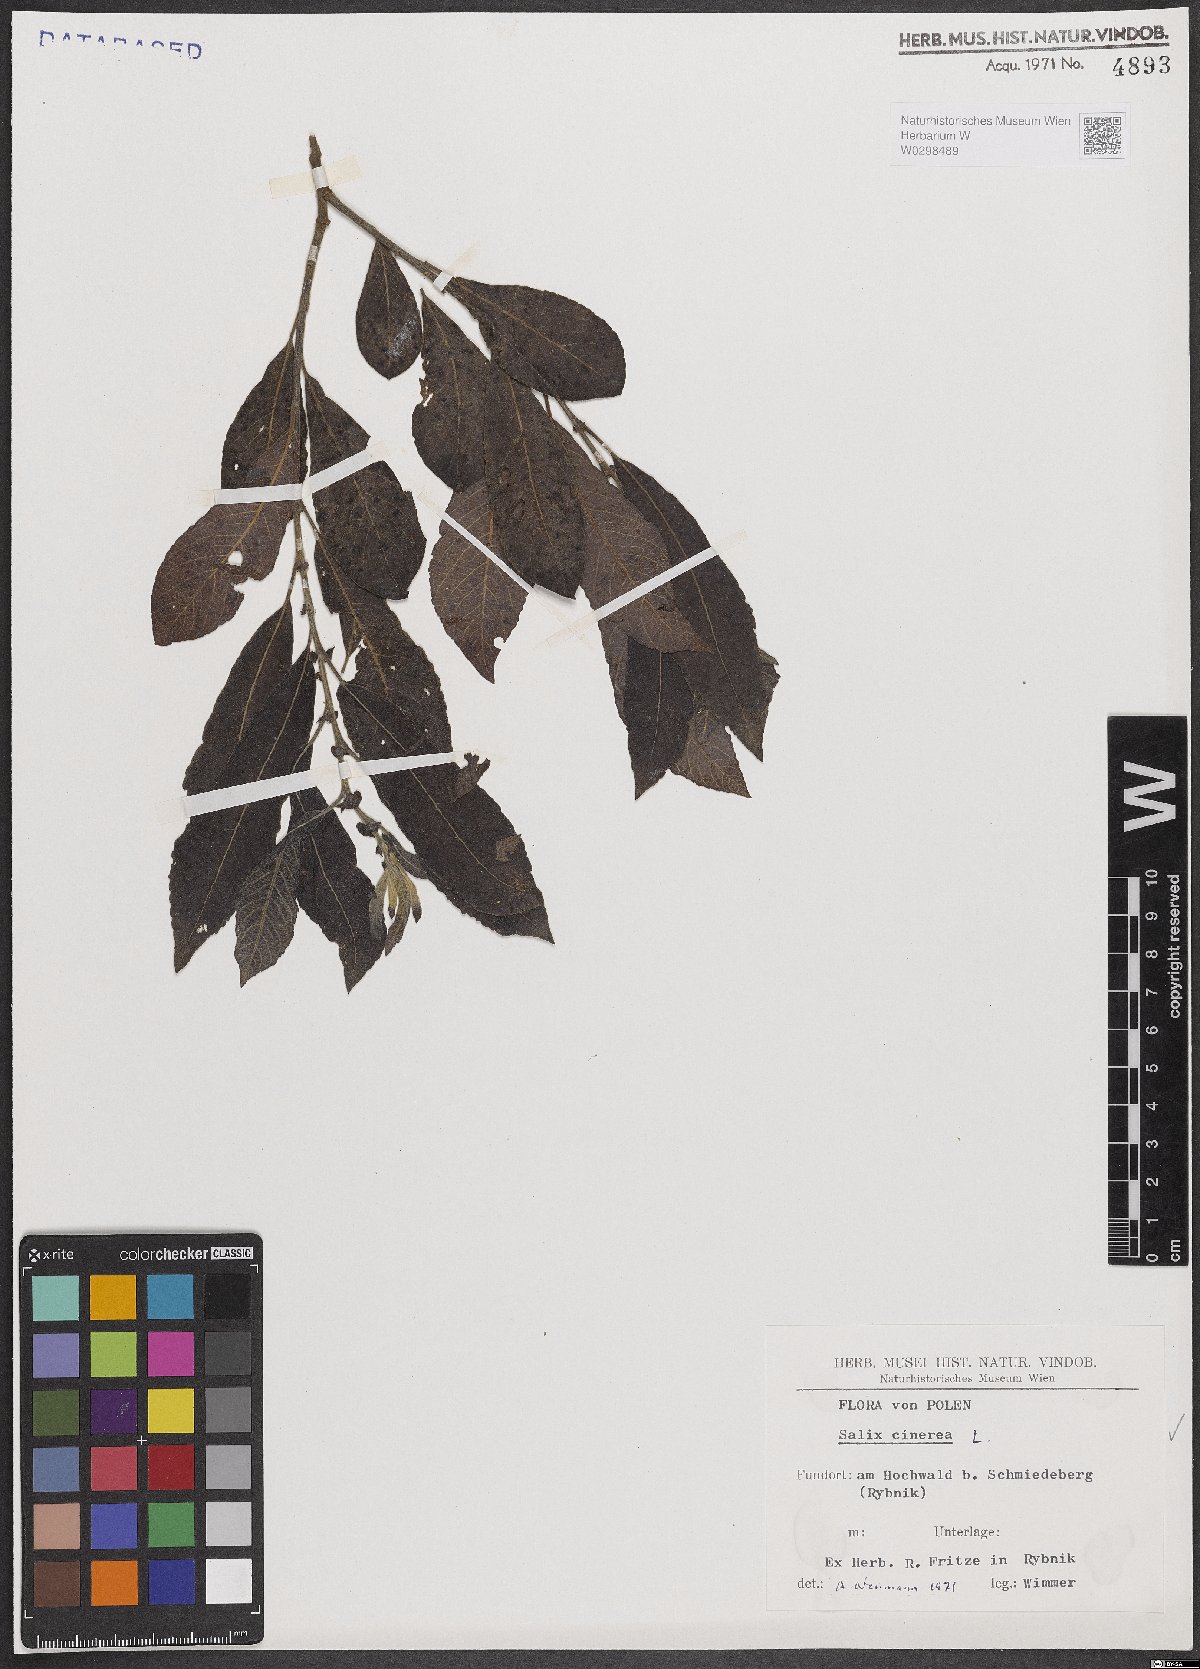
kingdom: Plantae
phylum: Tracheophyta
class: Magnoliopsida
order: Malpighiales
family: Salicaceae
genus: Salix
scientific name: Salix cinerea
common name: Common sallow
